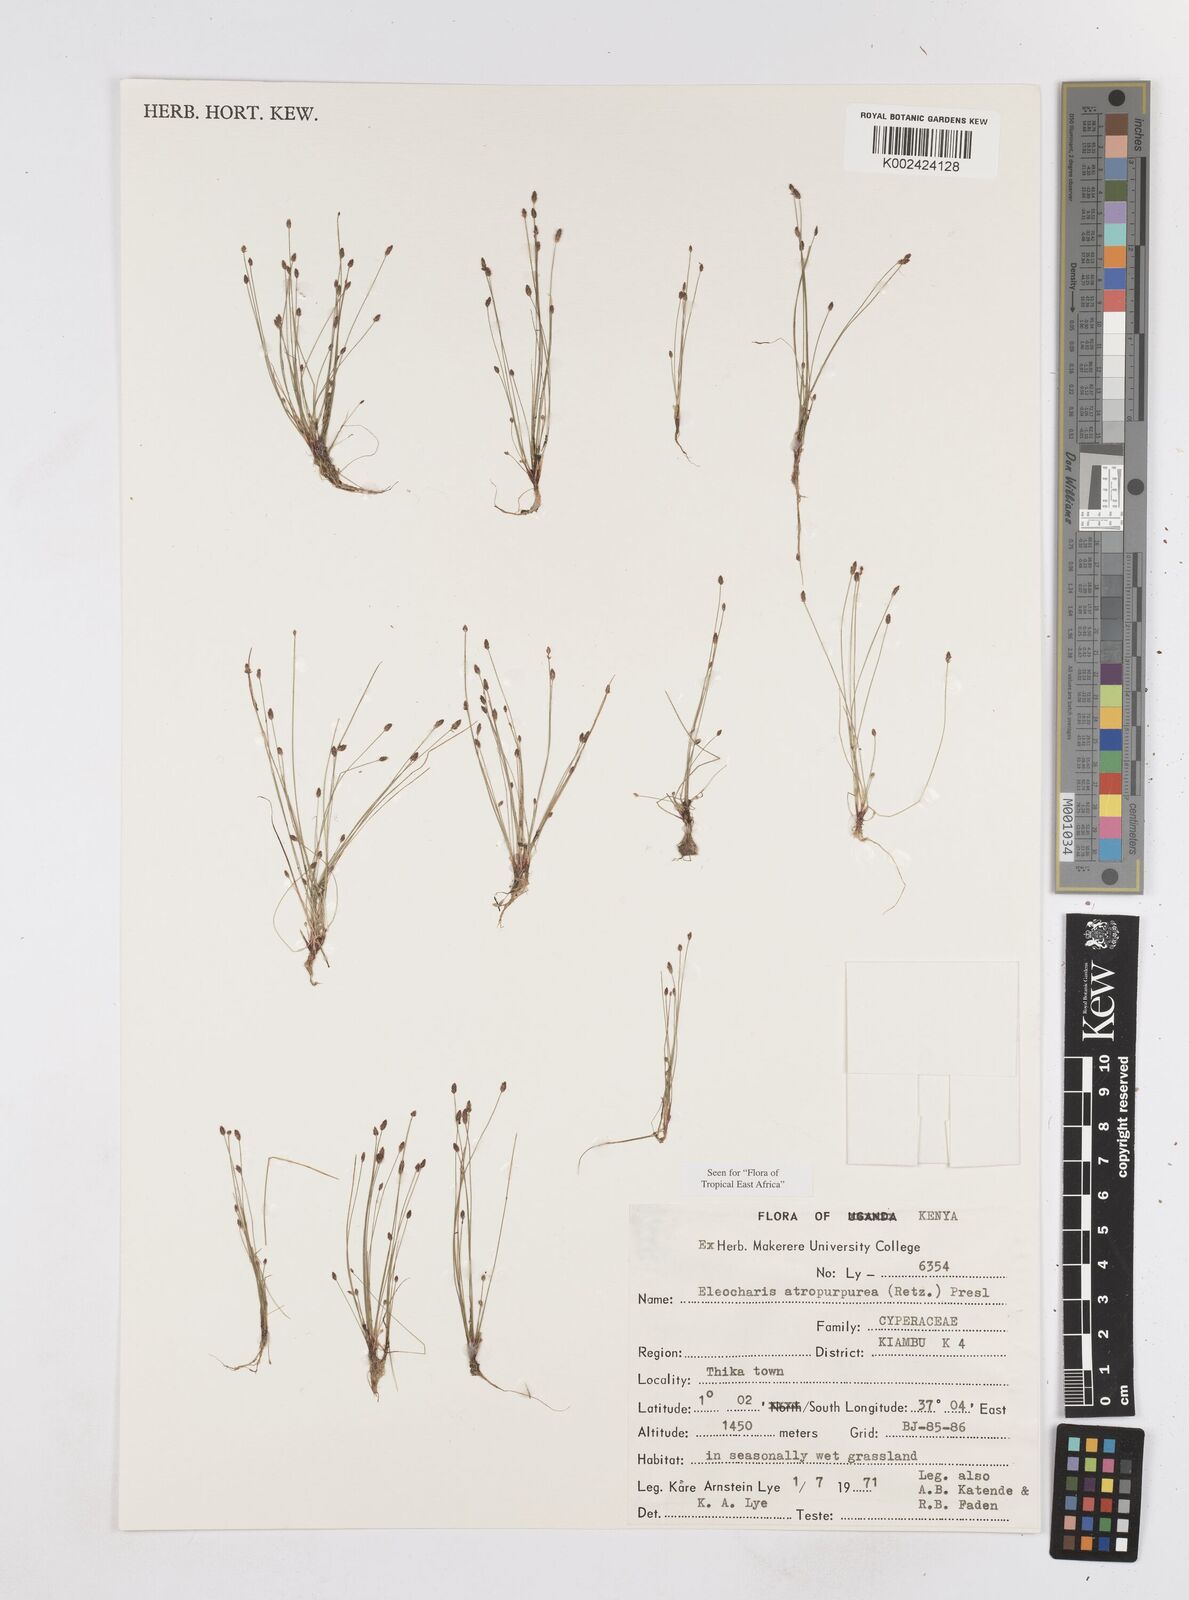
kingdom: Plantae
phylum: Tracheophyta
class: Liliopsida
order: Poales
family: Cyperaceae
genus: Eleocharis
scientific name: Eleocharis atropurpurea
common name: Purple spikerush
